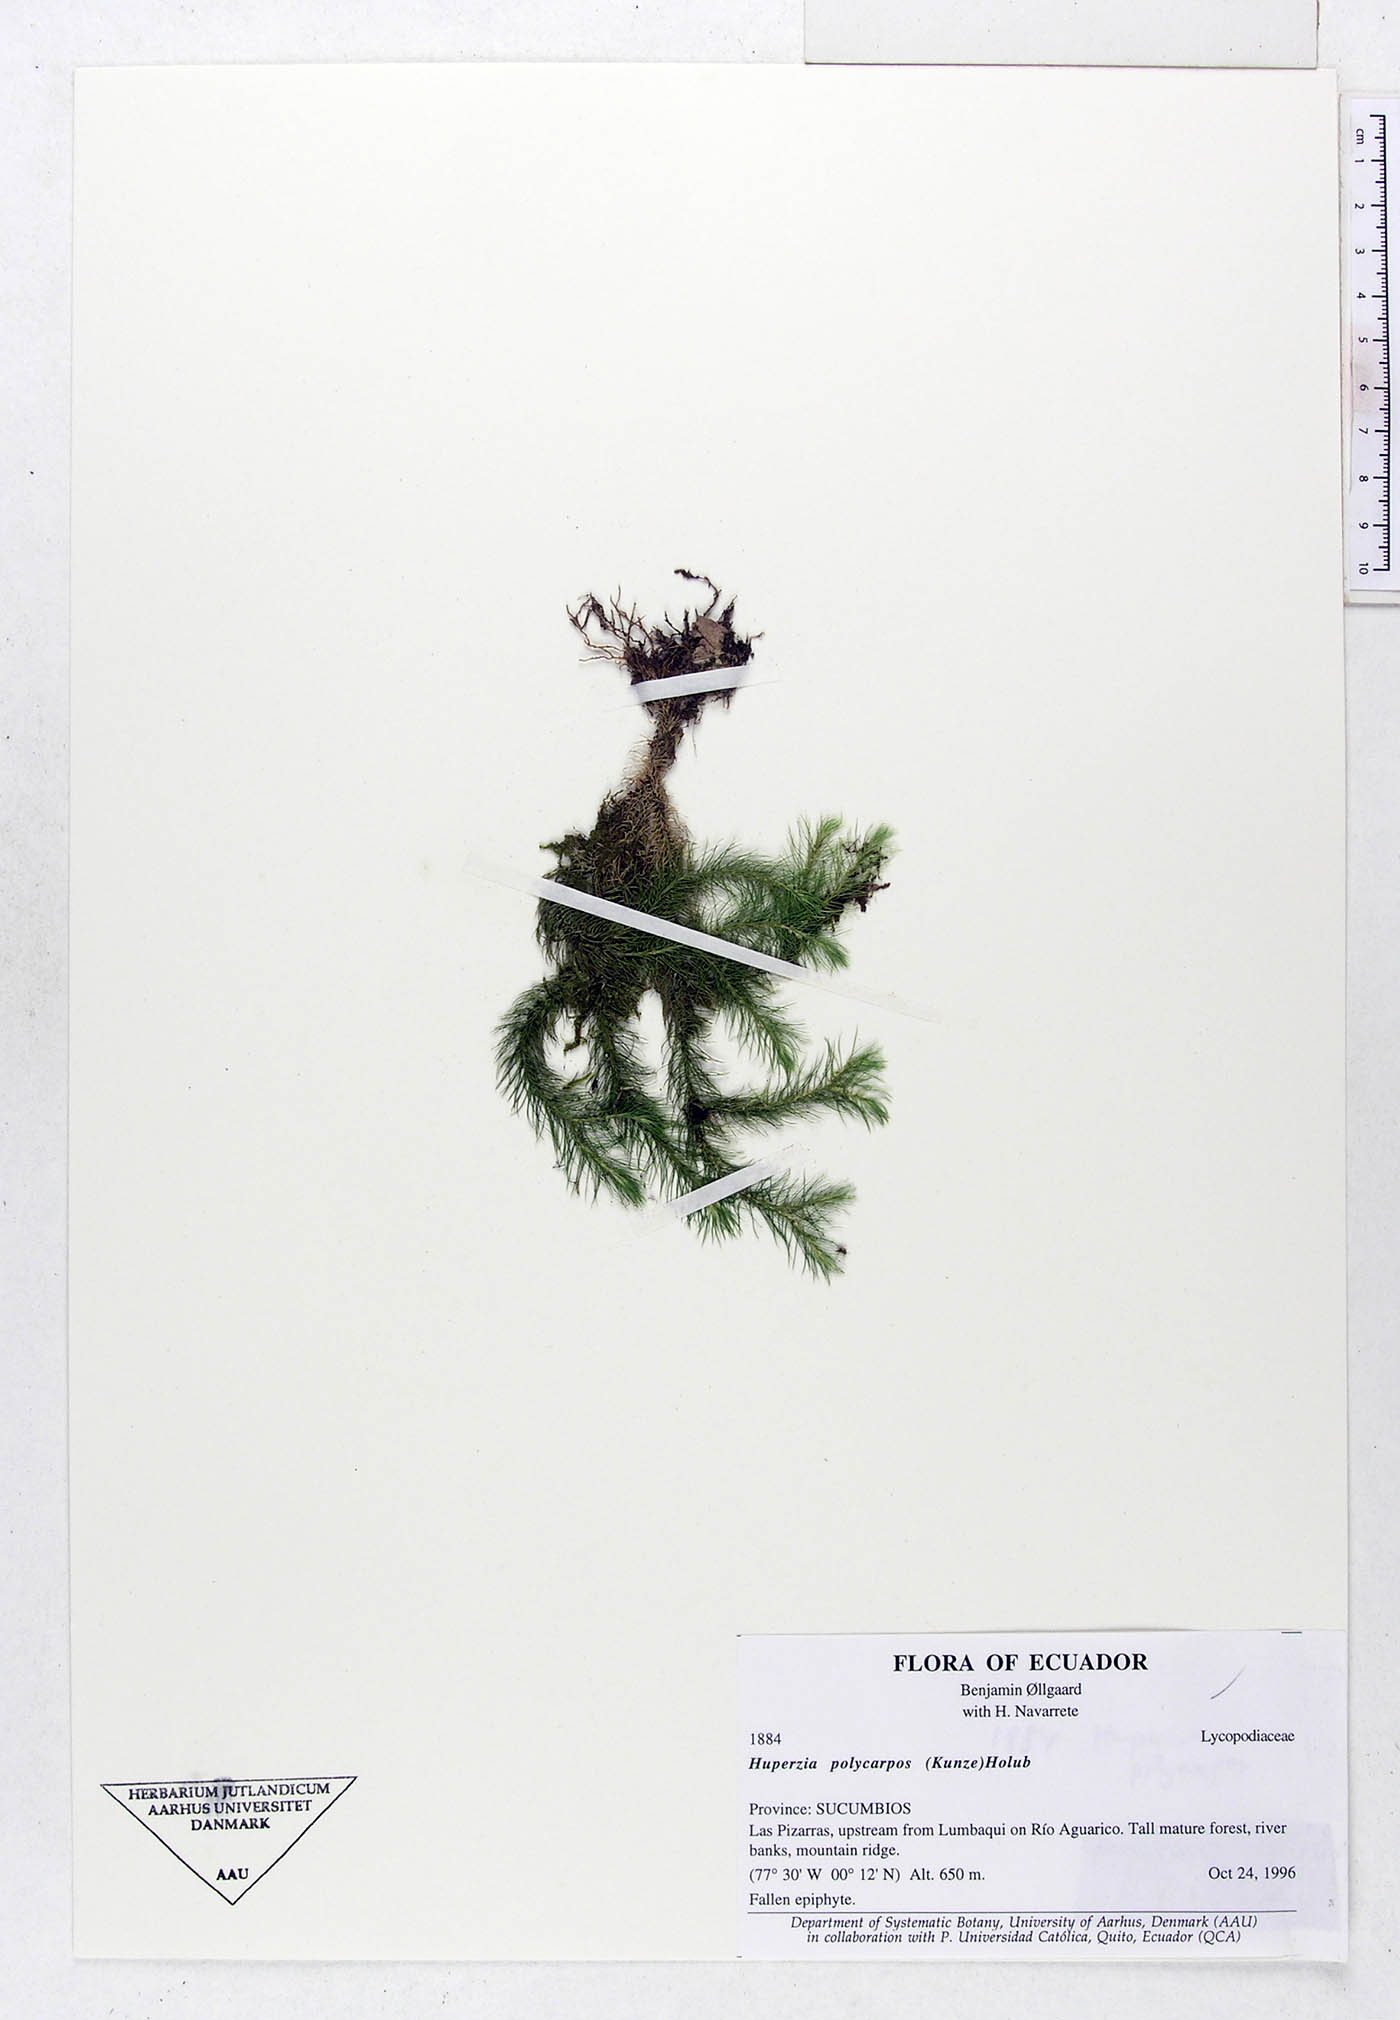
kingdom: Plantae
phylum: Tracheophyta
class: Lycopodiopsida
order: Lycopodiales
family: Lycopodiaceae
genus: Phlegmariurus
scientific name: Phlegmariurus polycarpos
